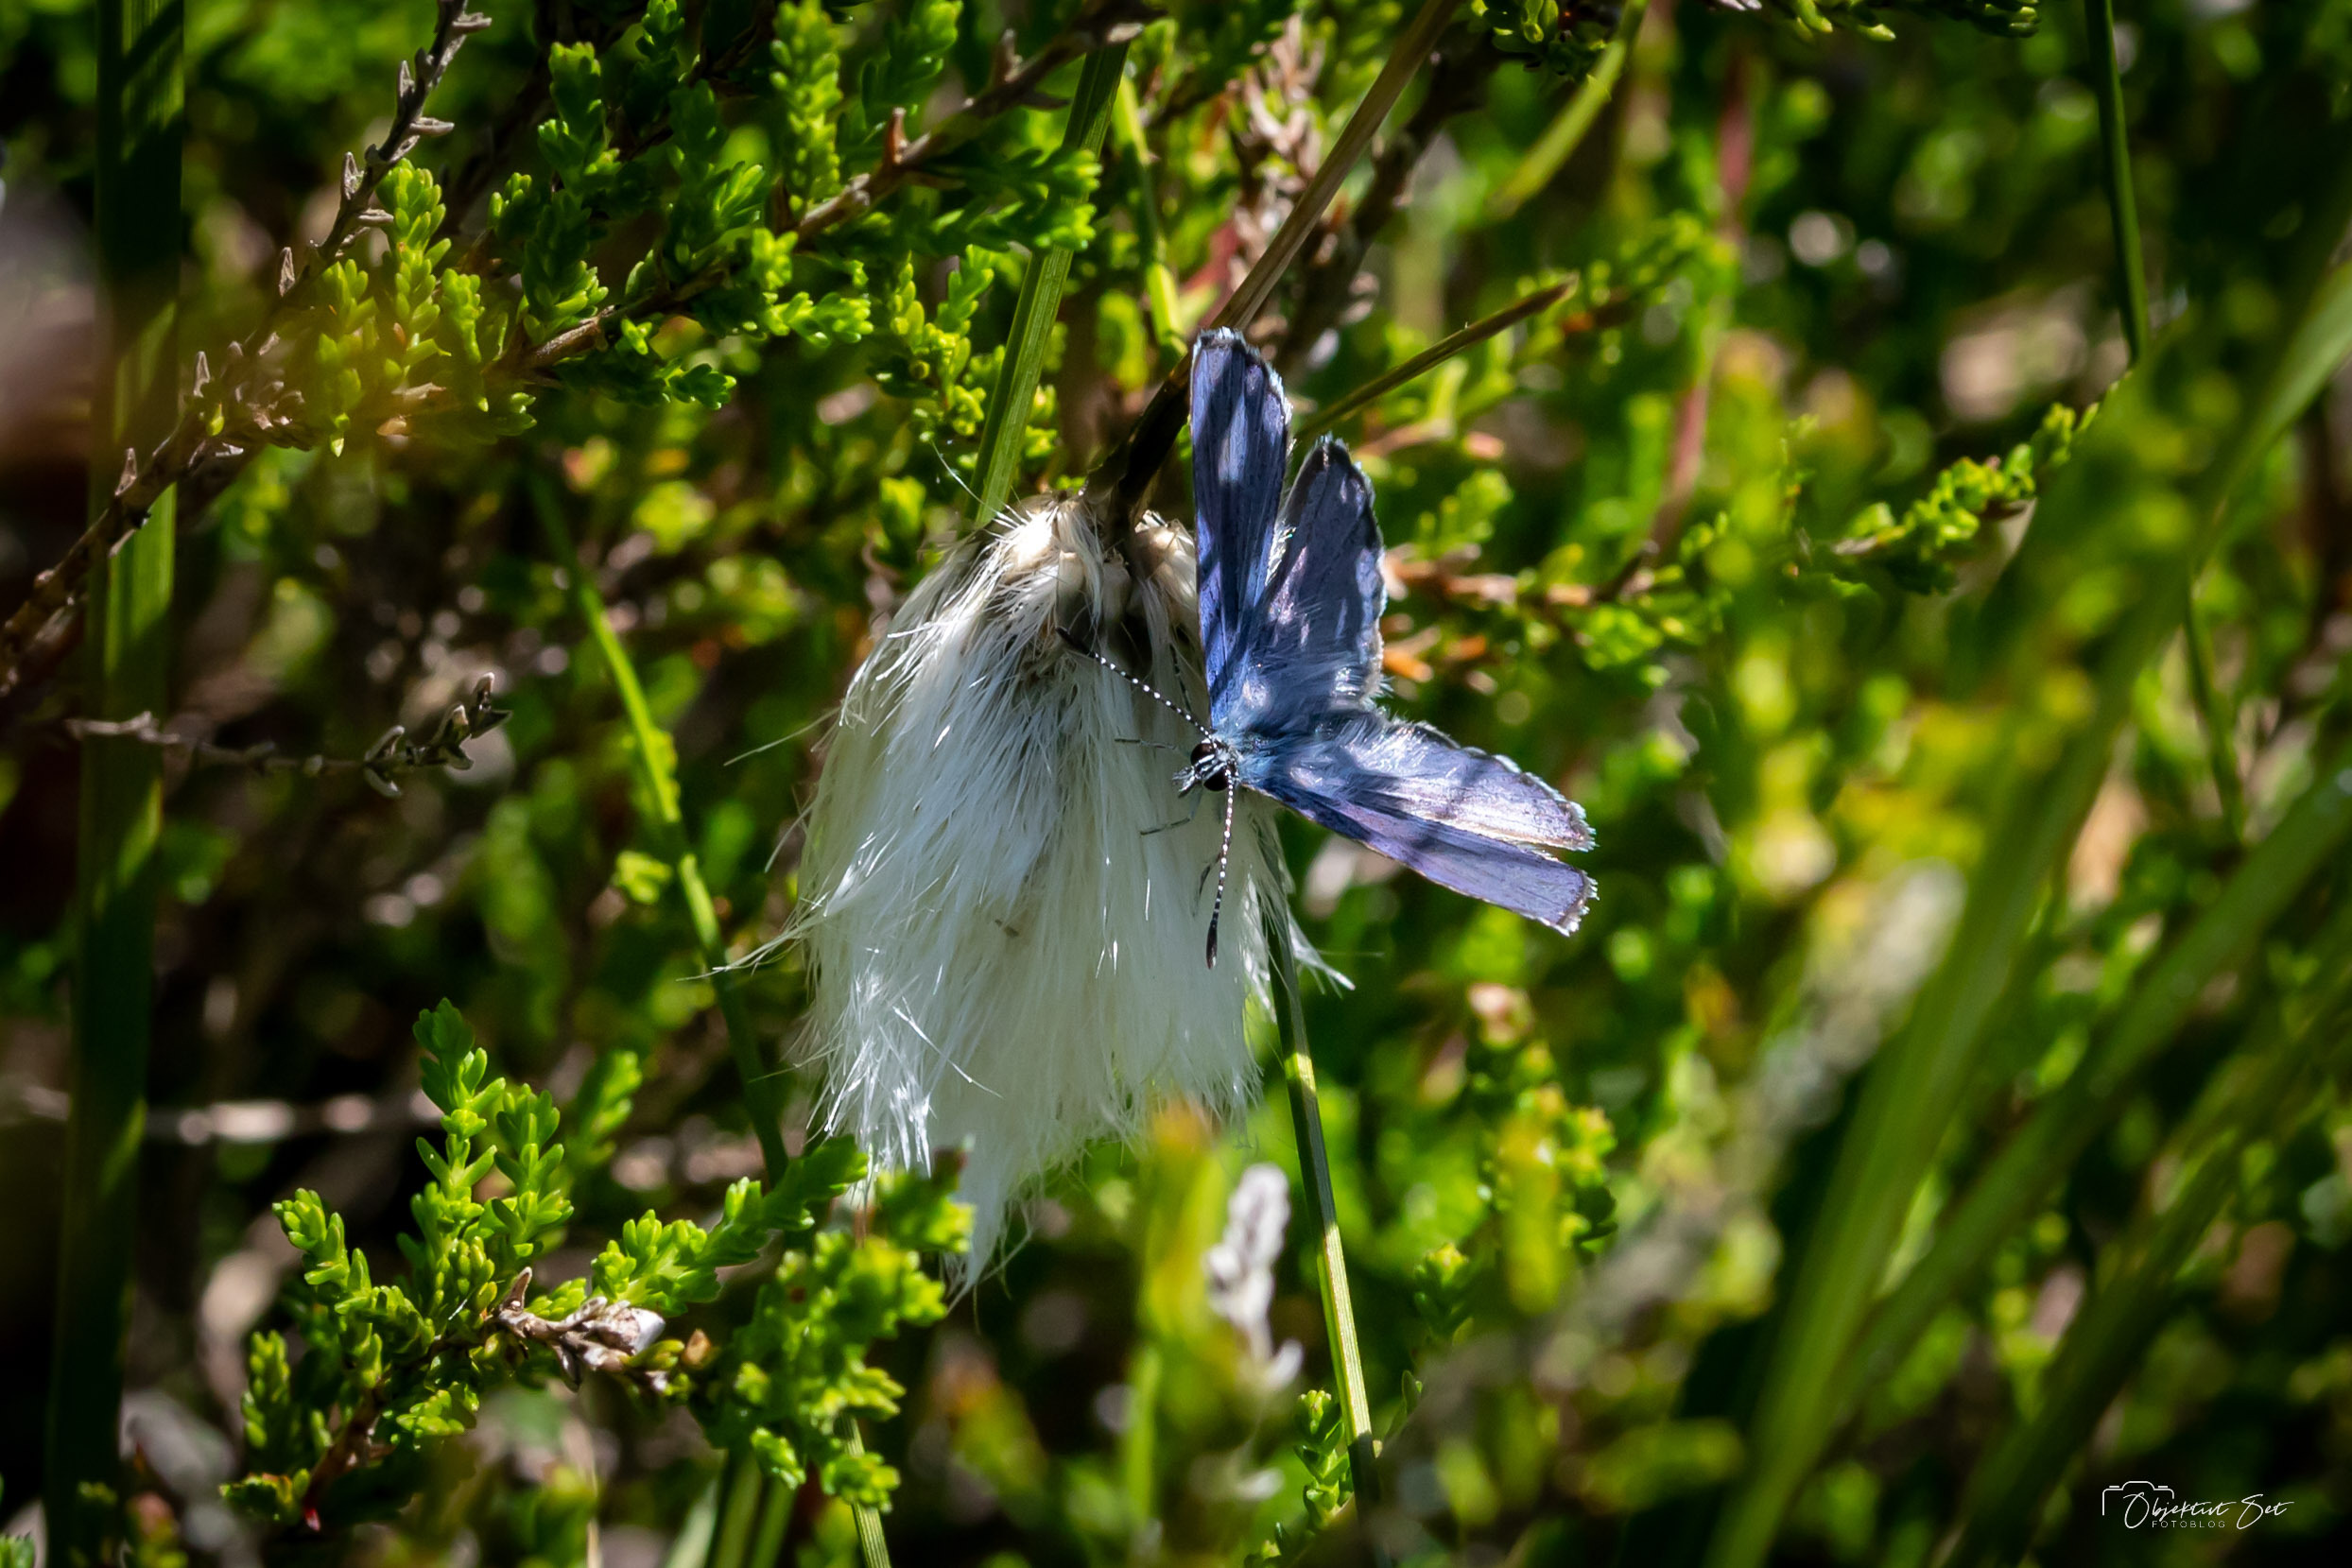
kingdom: Animalia
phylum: Arthropoda
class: Insecta
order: Lepidoptera
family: Lycaenidae
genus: Vacciniina
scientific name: Vacciniina optilete
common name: Bølleblåfugl
